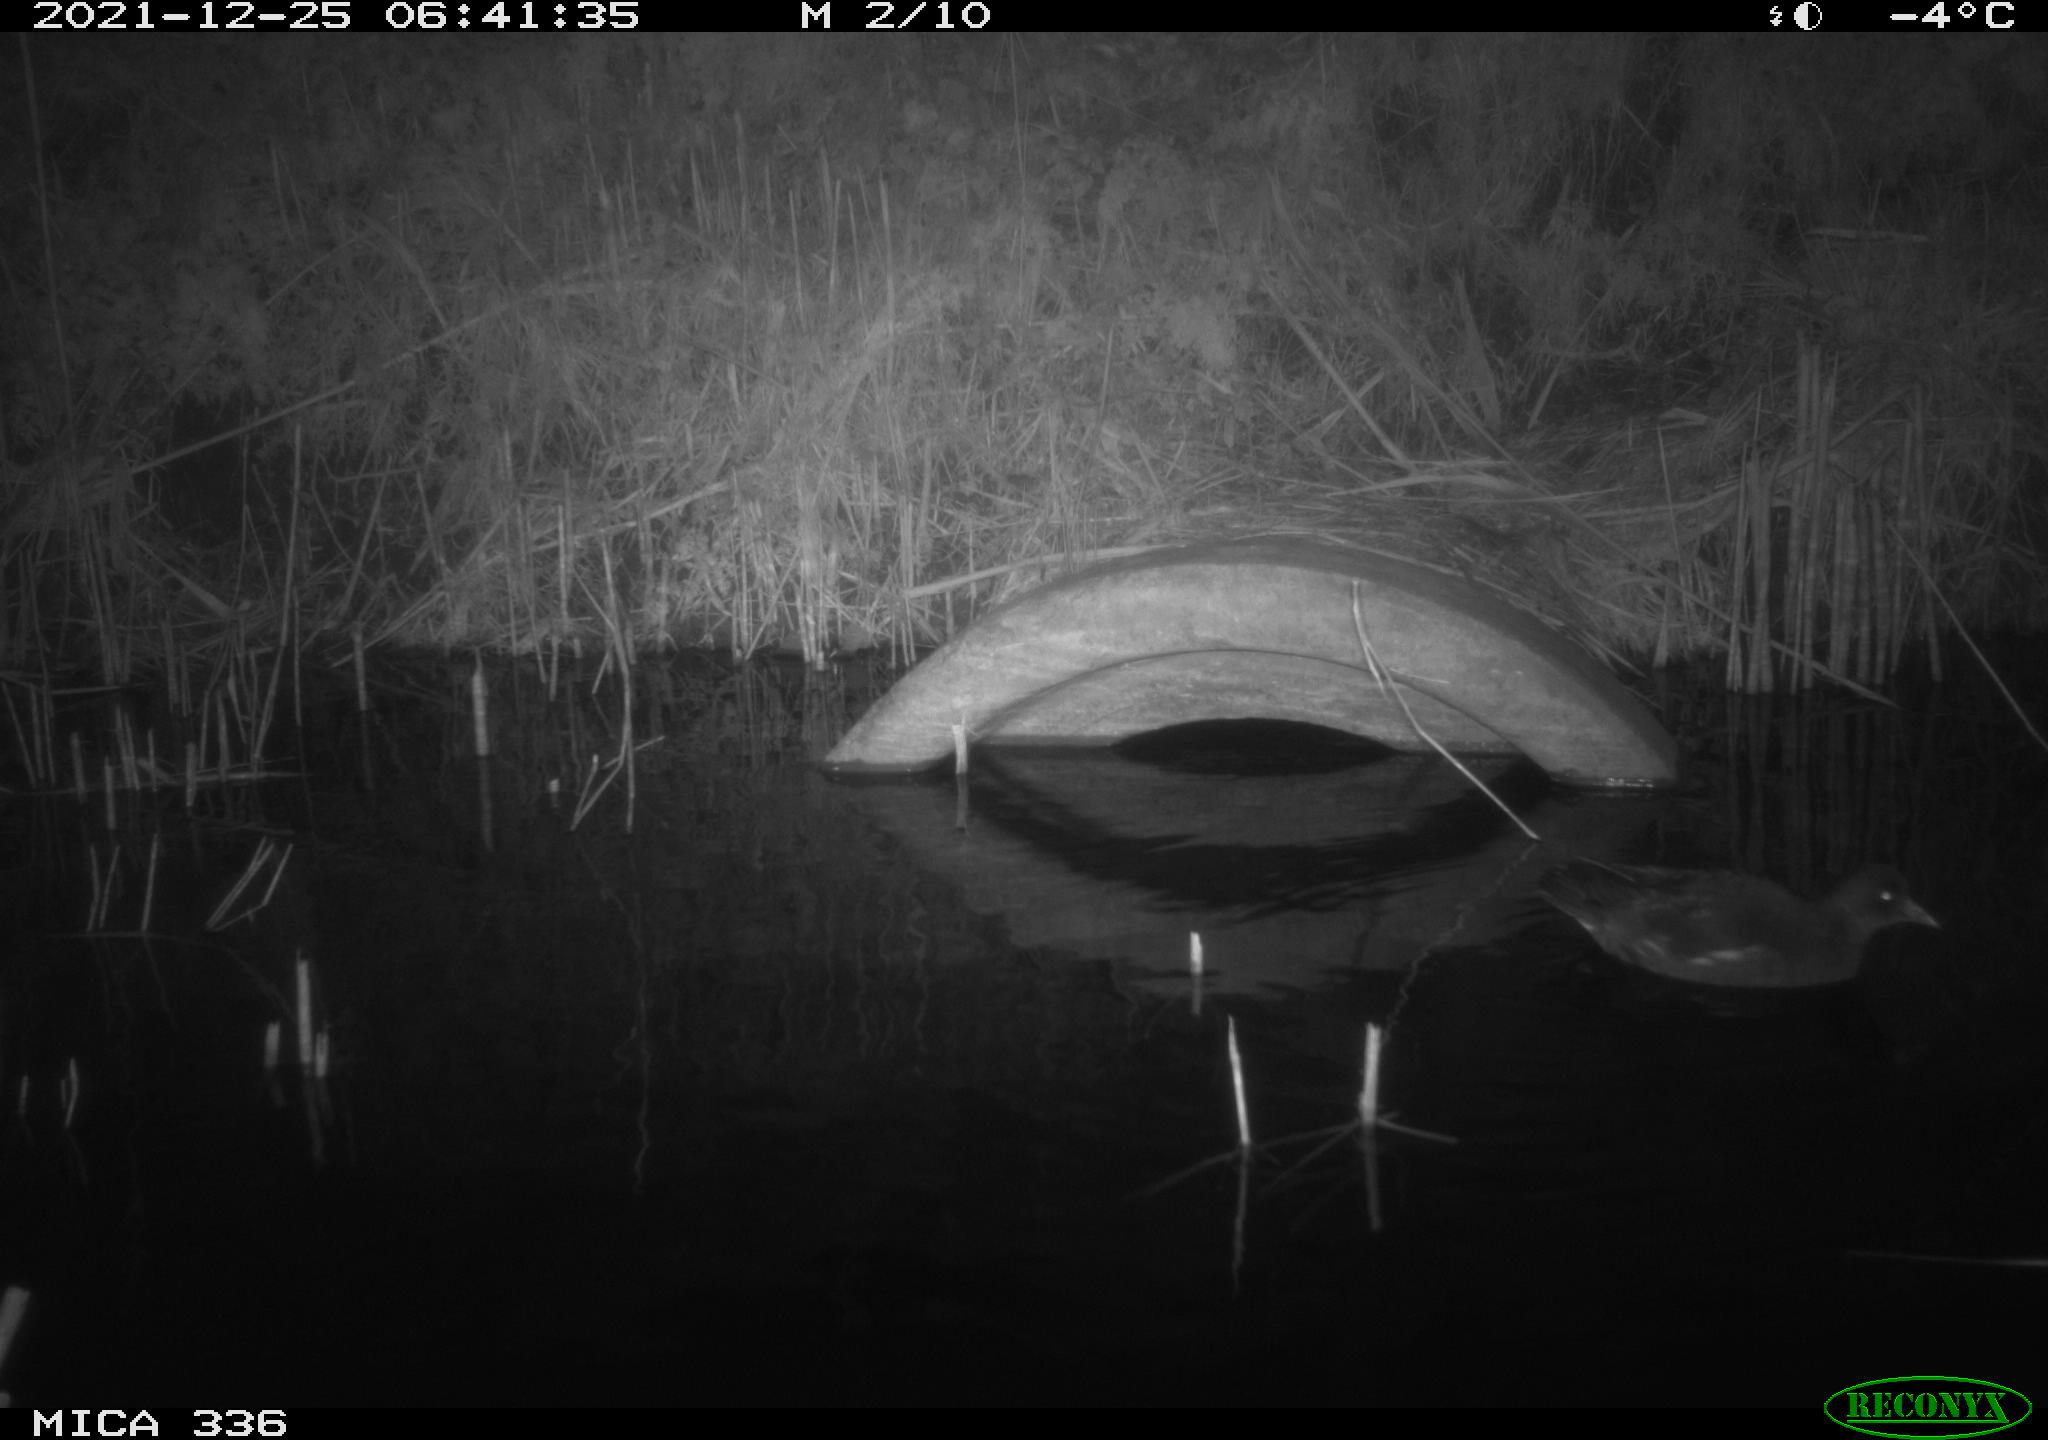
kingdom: Animalia
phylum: Chordata
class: Aves
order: Gruiformes
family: Rallidae
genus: Gallinula
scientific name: Gallinula chloropus
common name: Common moorhen
